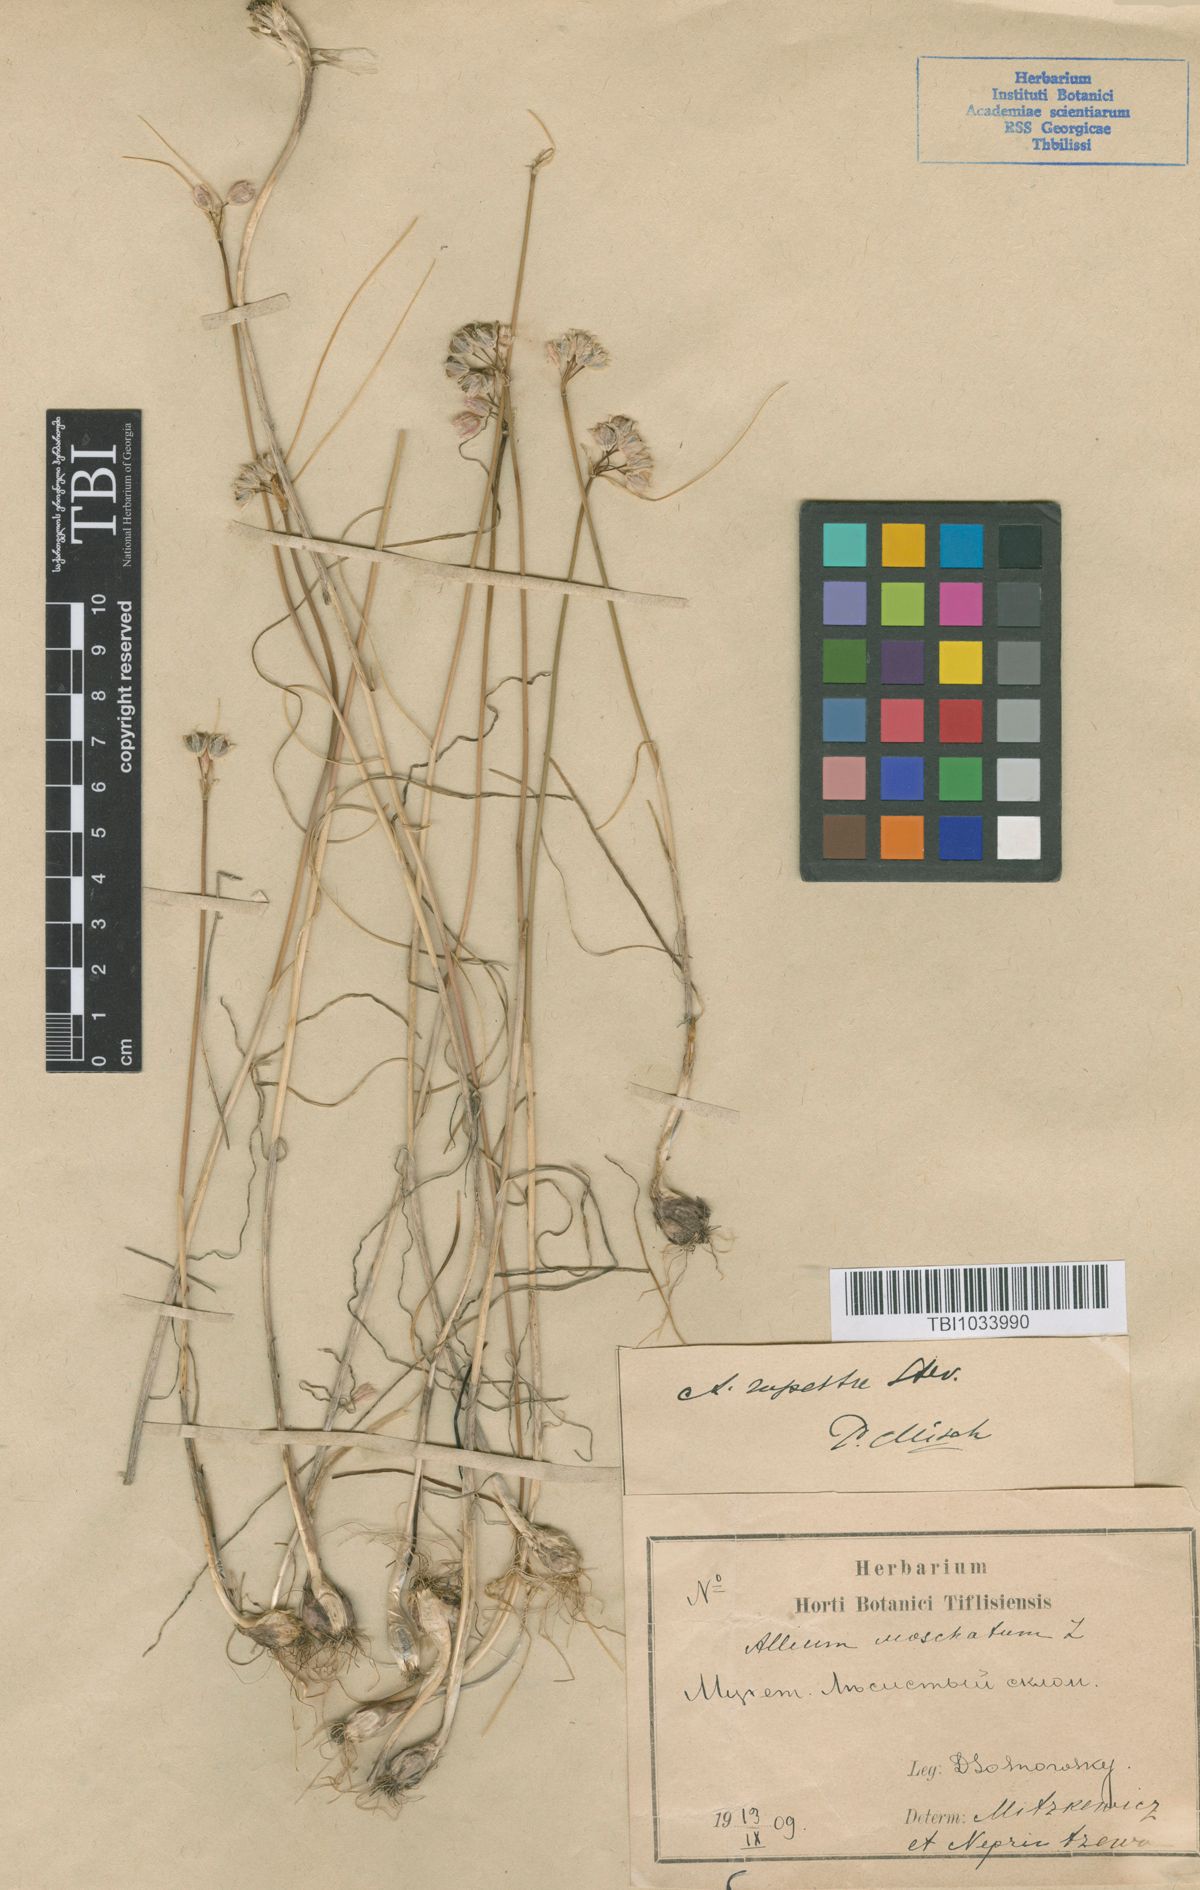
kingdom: Plantae
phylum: Tracheophyta
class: Liliopsida
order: Asparagales
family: Amaryllidaceae
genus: Allium
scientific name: Allium rupestre
